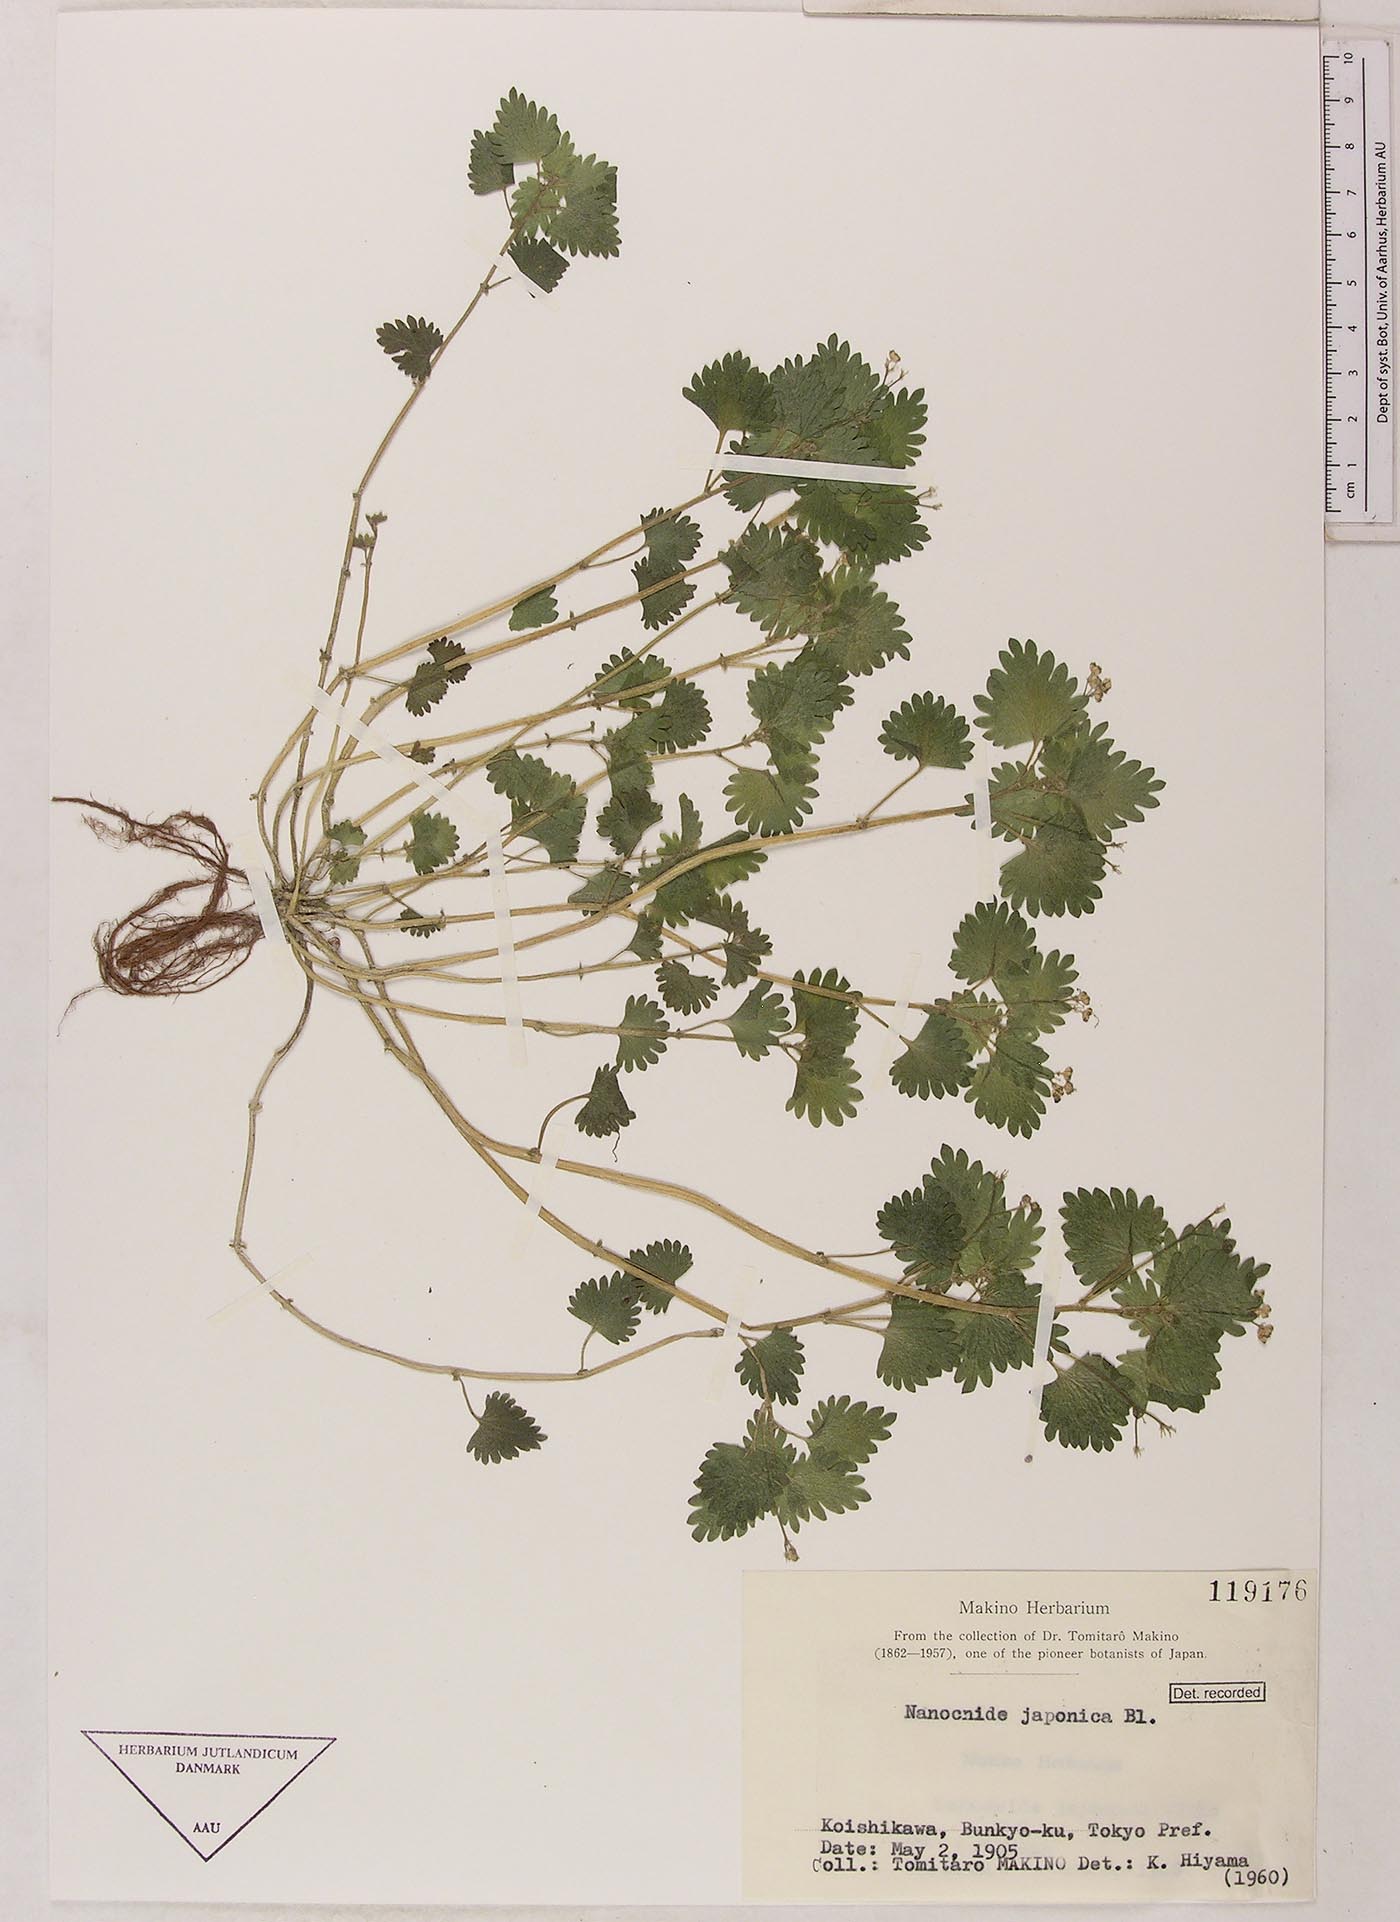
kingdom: Plantae
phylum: Tracheophyta
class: Magnoliopsida
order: Rosales
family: Urticaceae
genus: Nanocnide
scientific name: Nanocnide lobata
